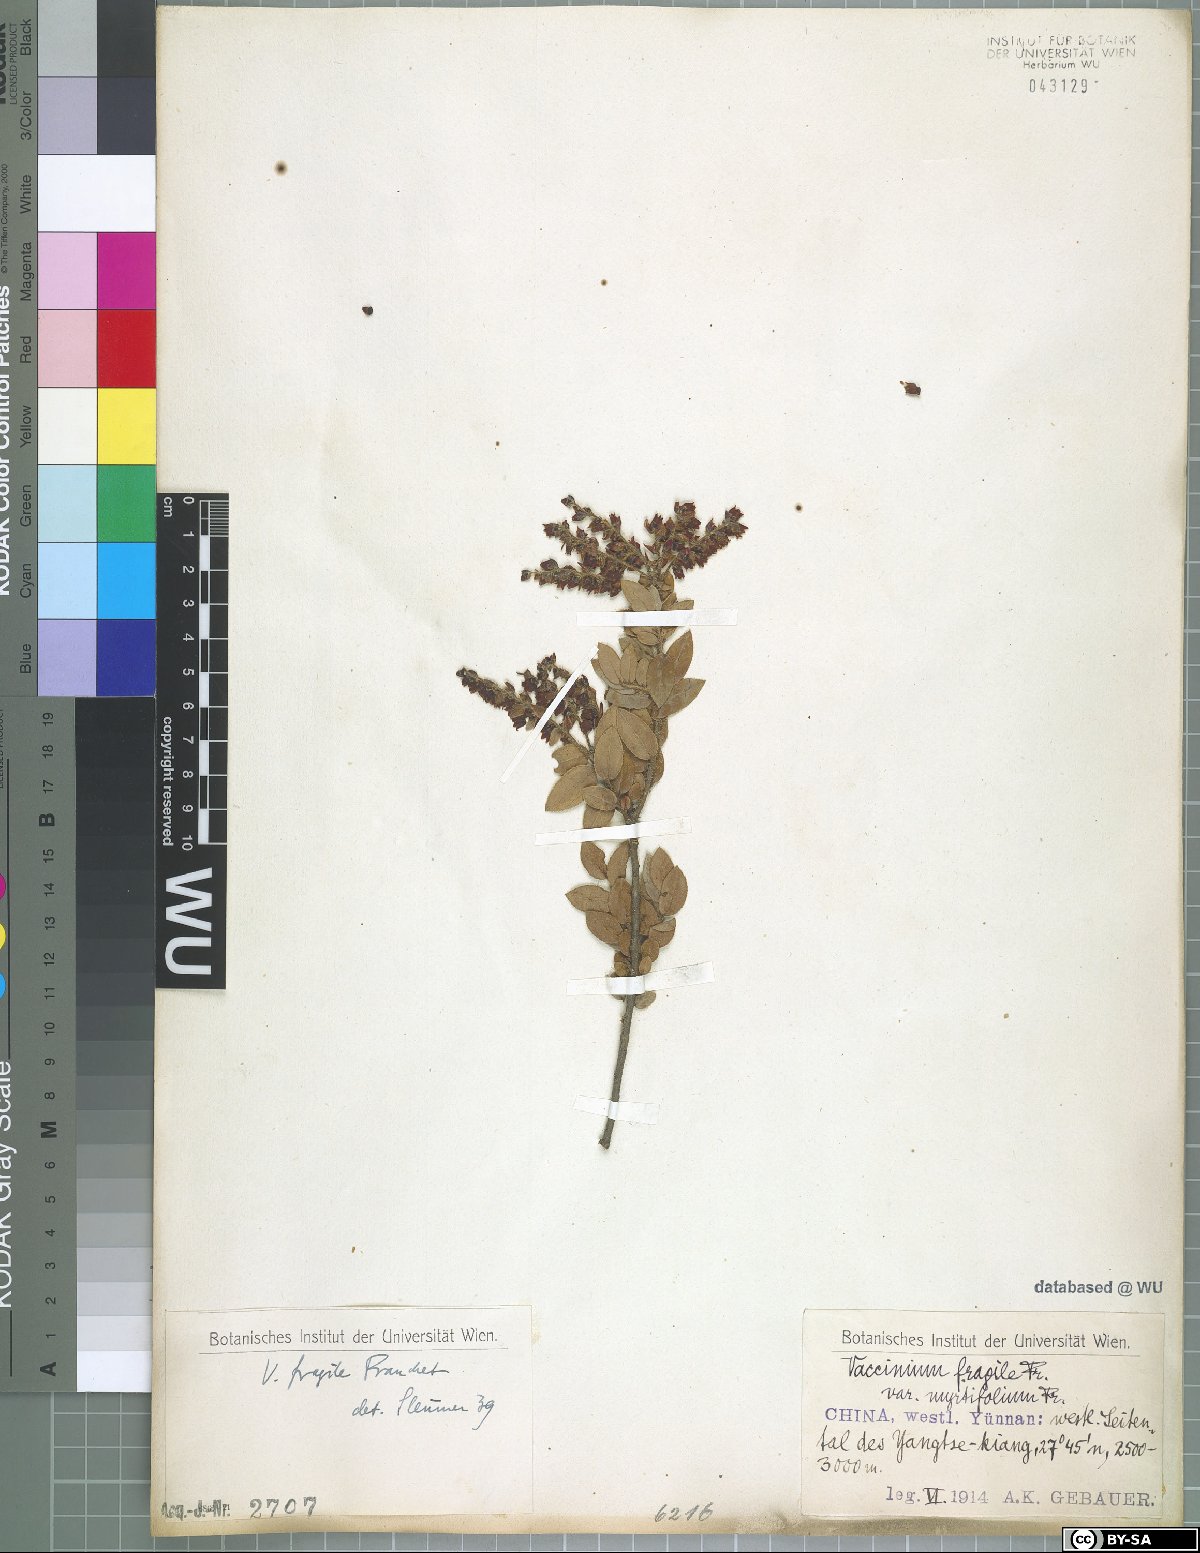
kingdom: Plantae
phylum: Tracheophyta
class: Magnoliopsida
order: Ericales
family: Ericaceae
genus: Vaccinium
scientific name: Vaccinium fragile
